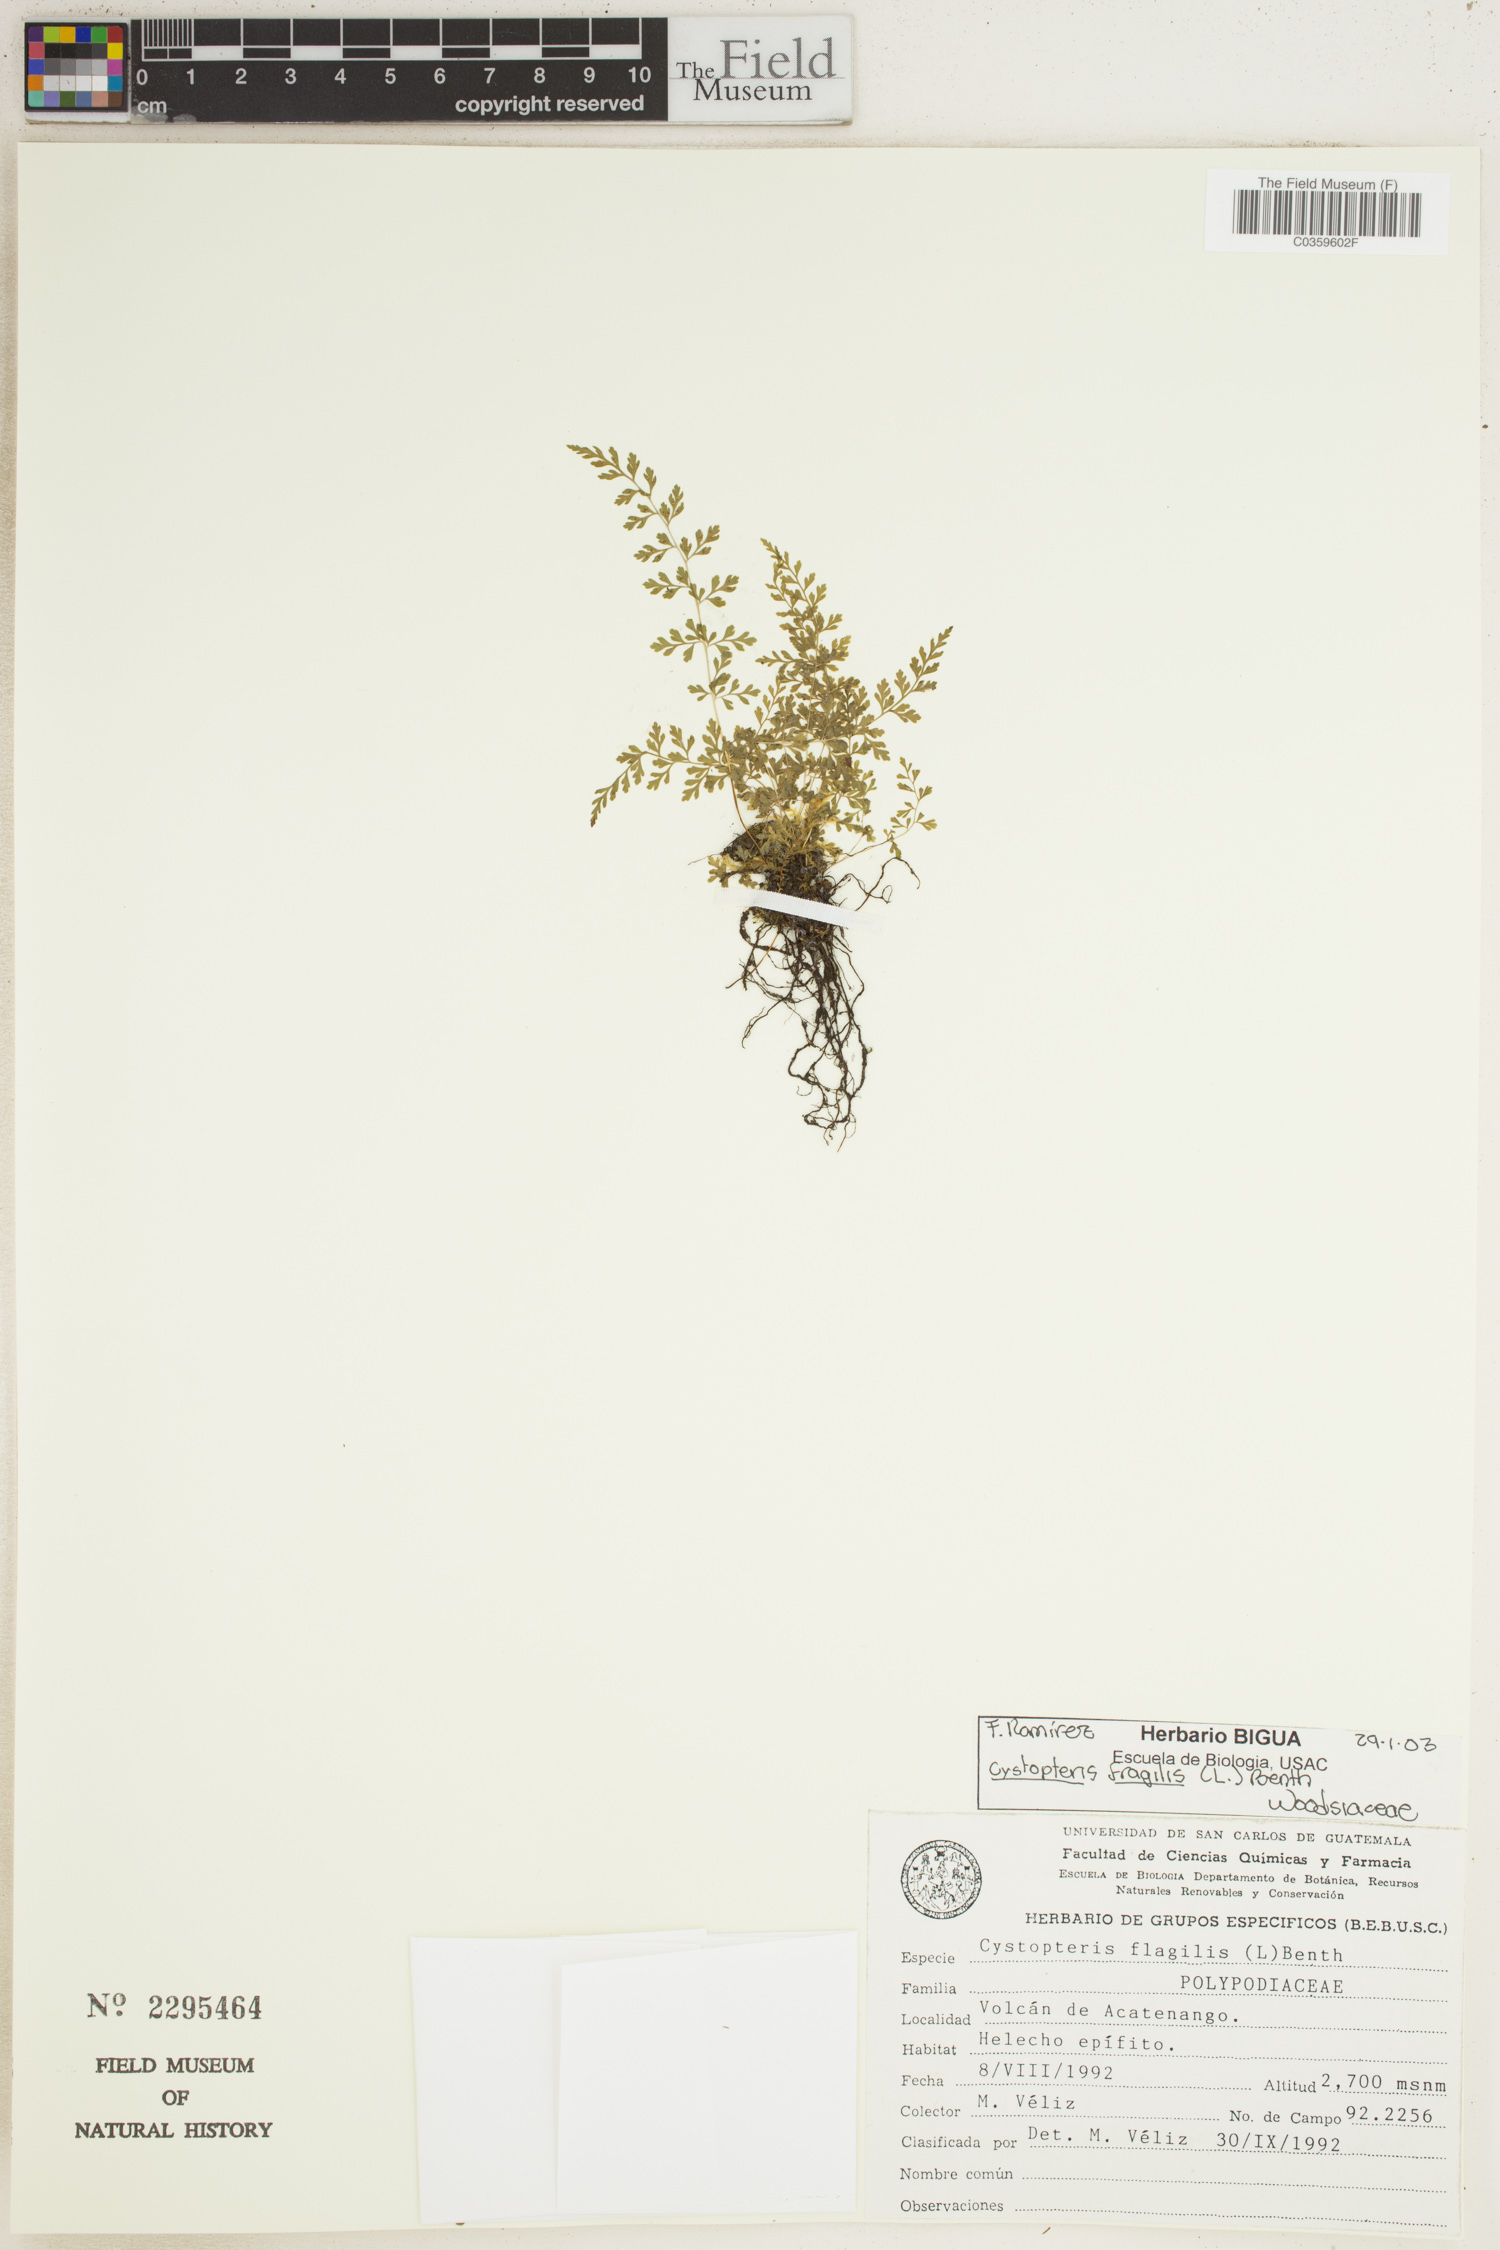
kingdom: Plantae
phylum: Tracheophyta
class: Polypodiopsida
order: Polypodiales
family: Cystopteridaceae
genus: Cystopteris
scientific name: Cystopteris fragilis
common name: Brittle bladder fern
